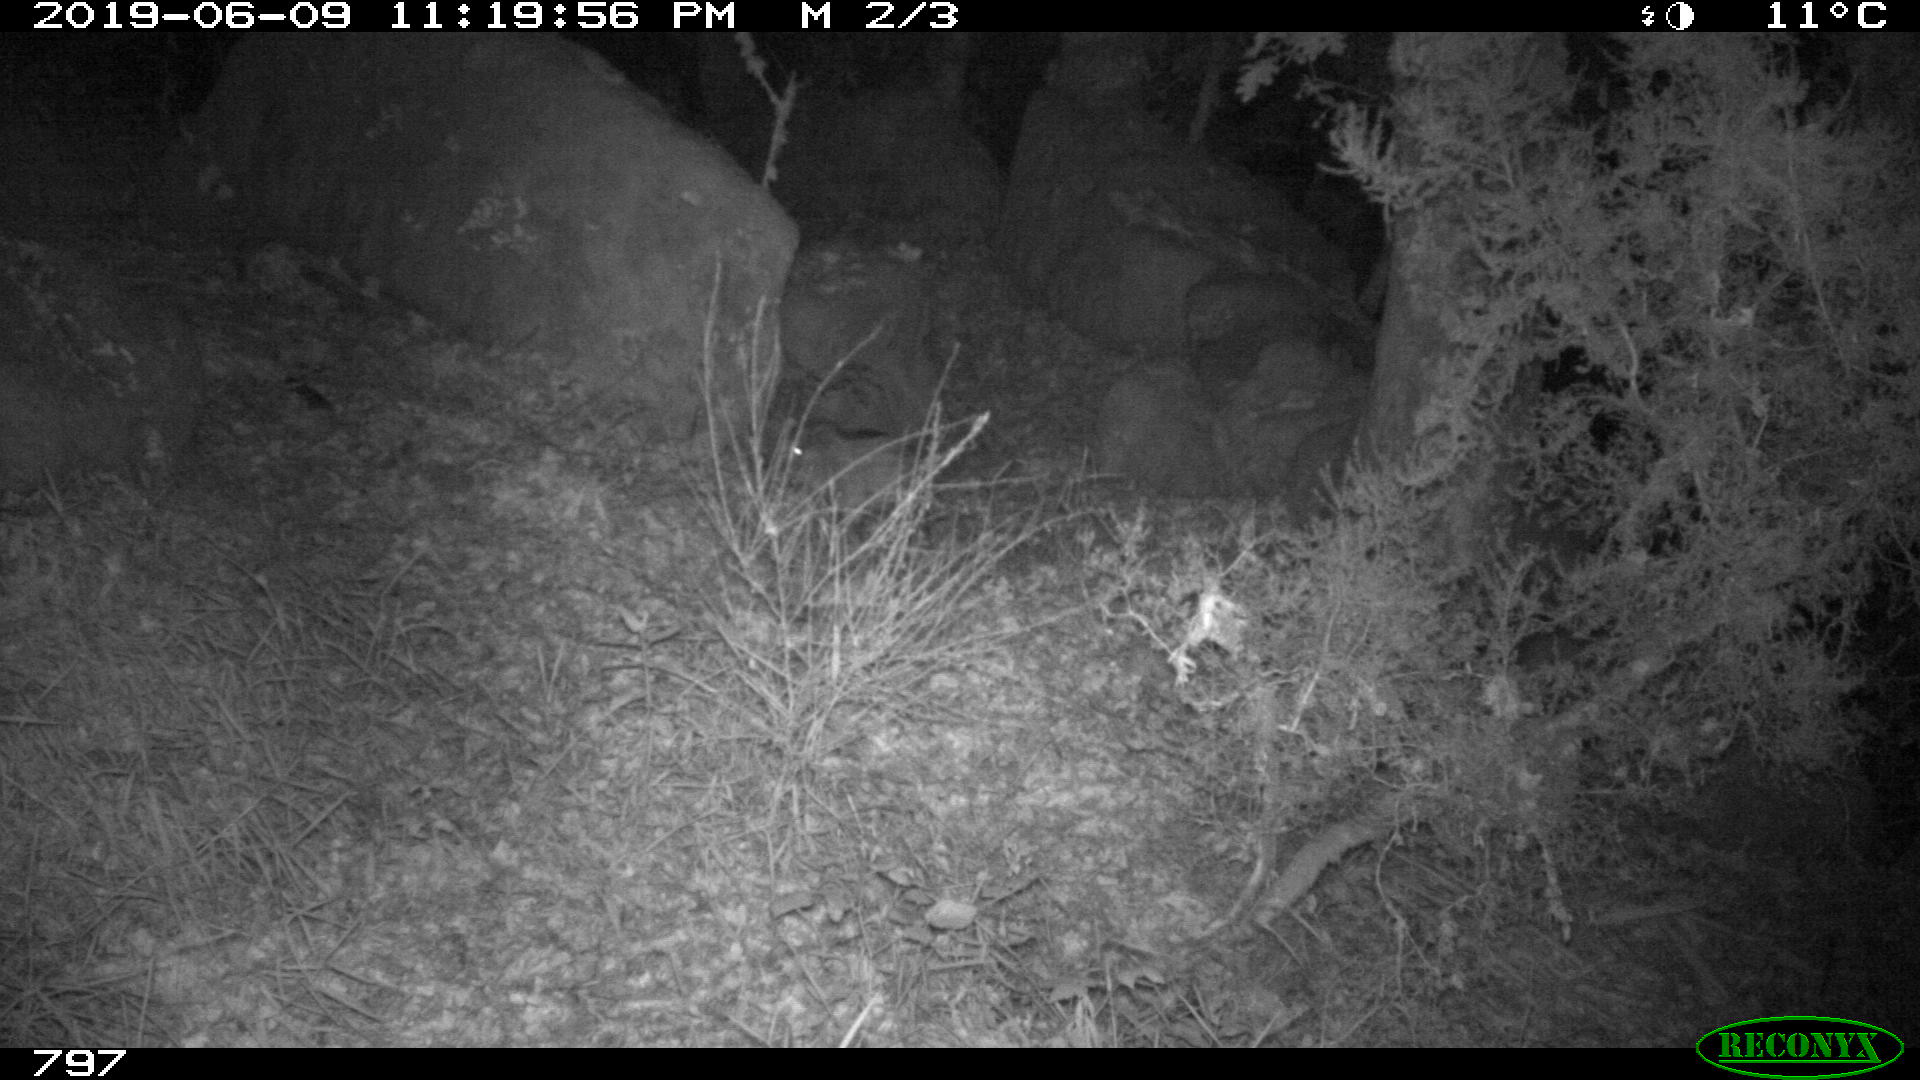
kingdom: Animalia
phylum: Chordata
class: Mammalia
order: Artiodactyla
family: Suidae
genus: Sus
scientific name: Sus scrofa
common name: Wild boar
